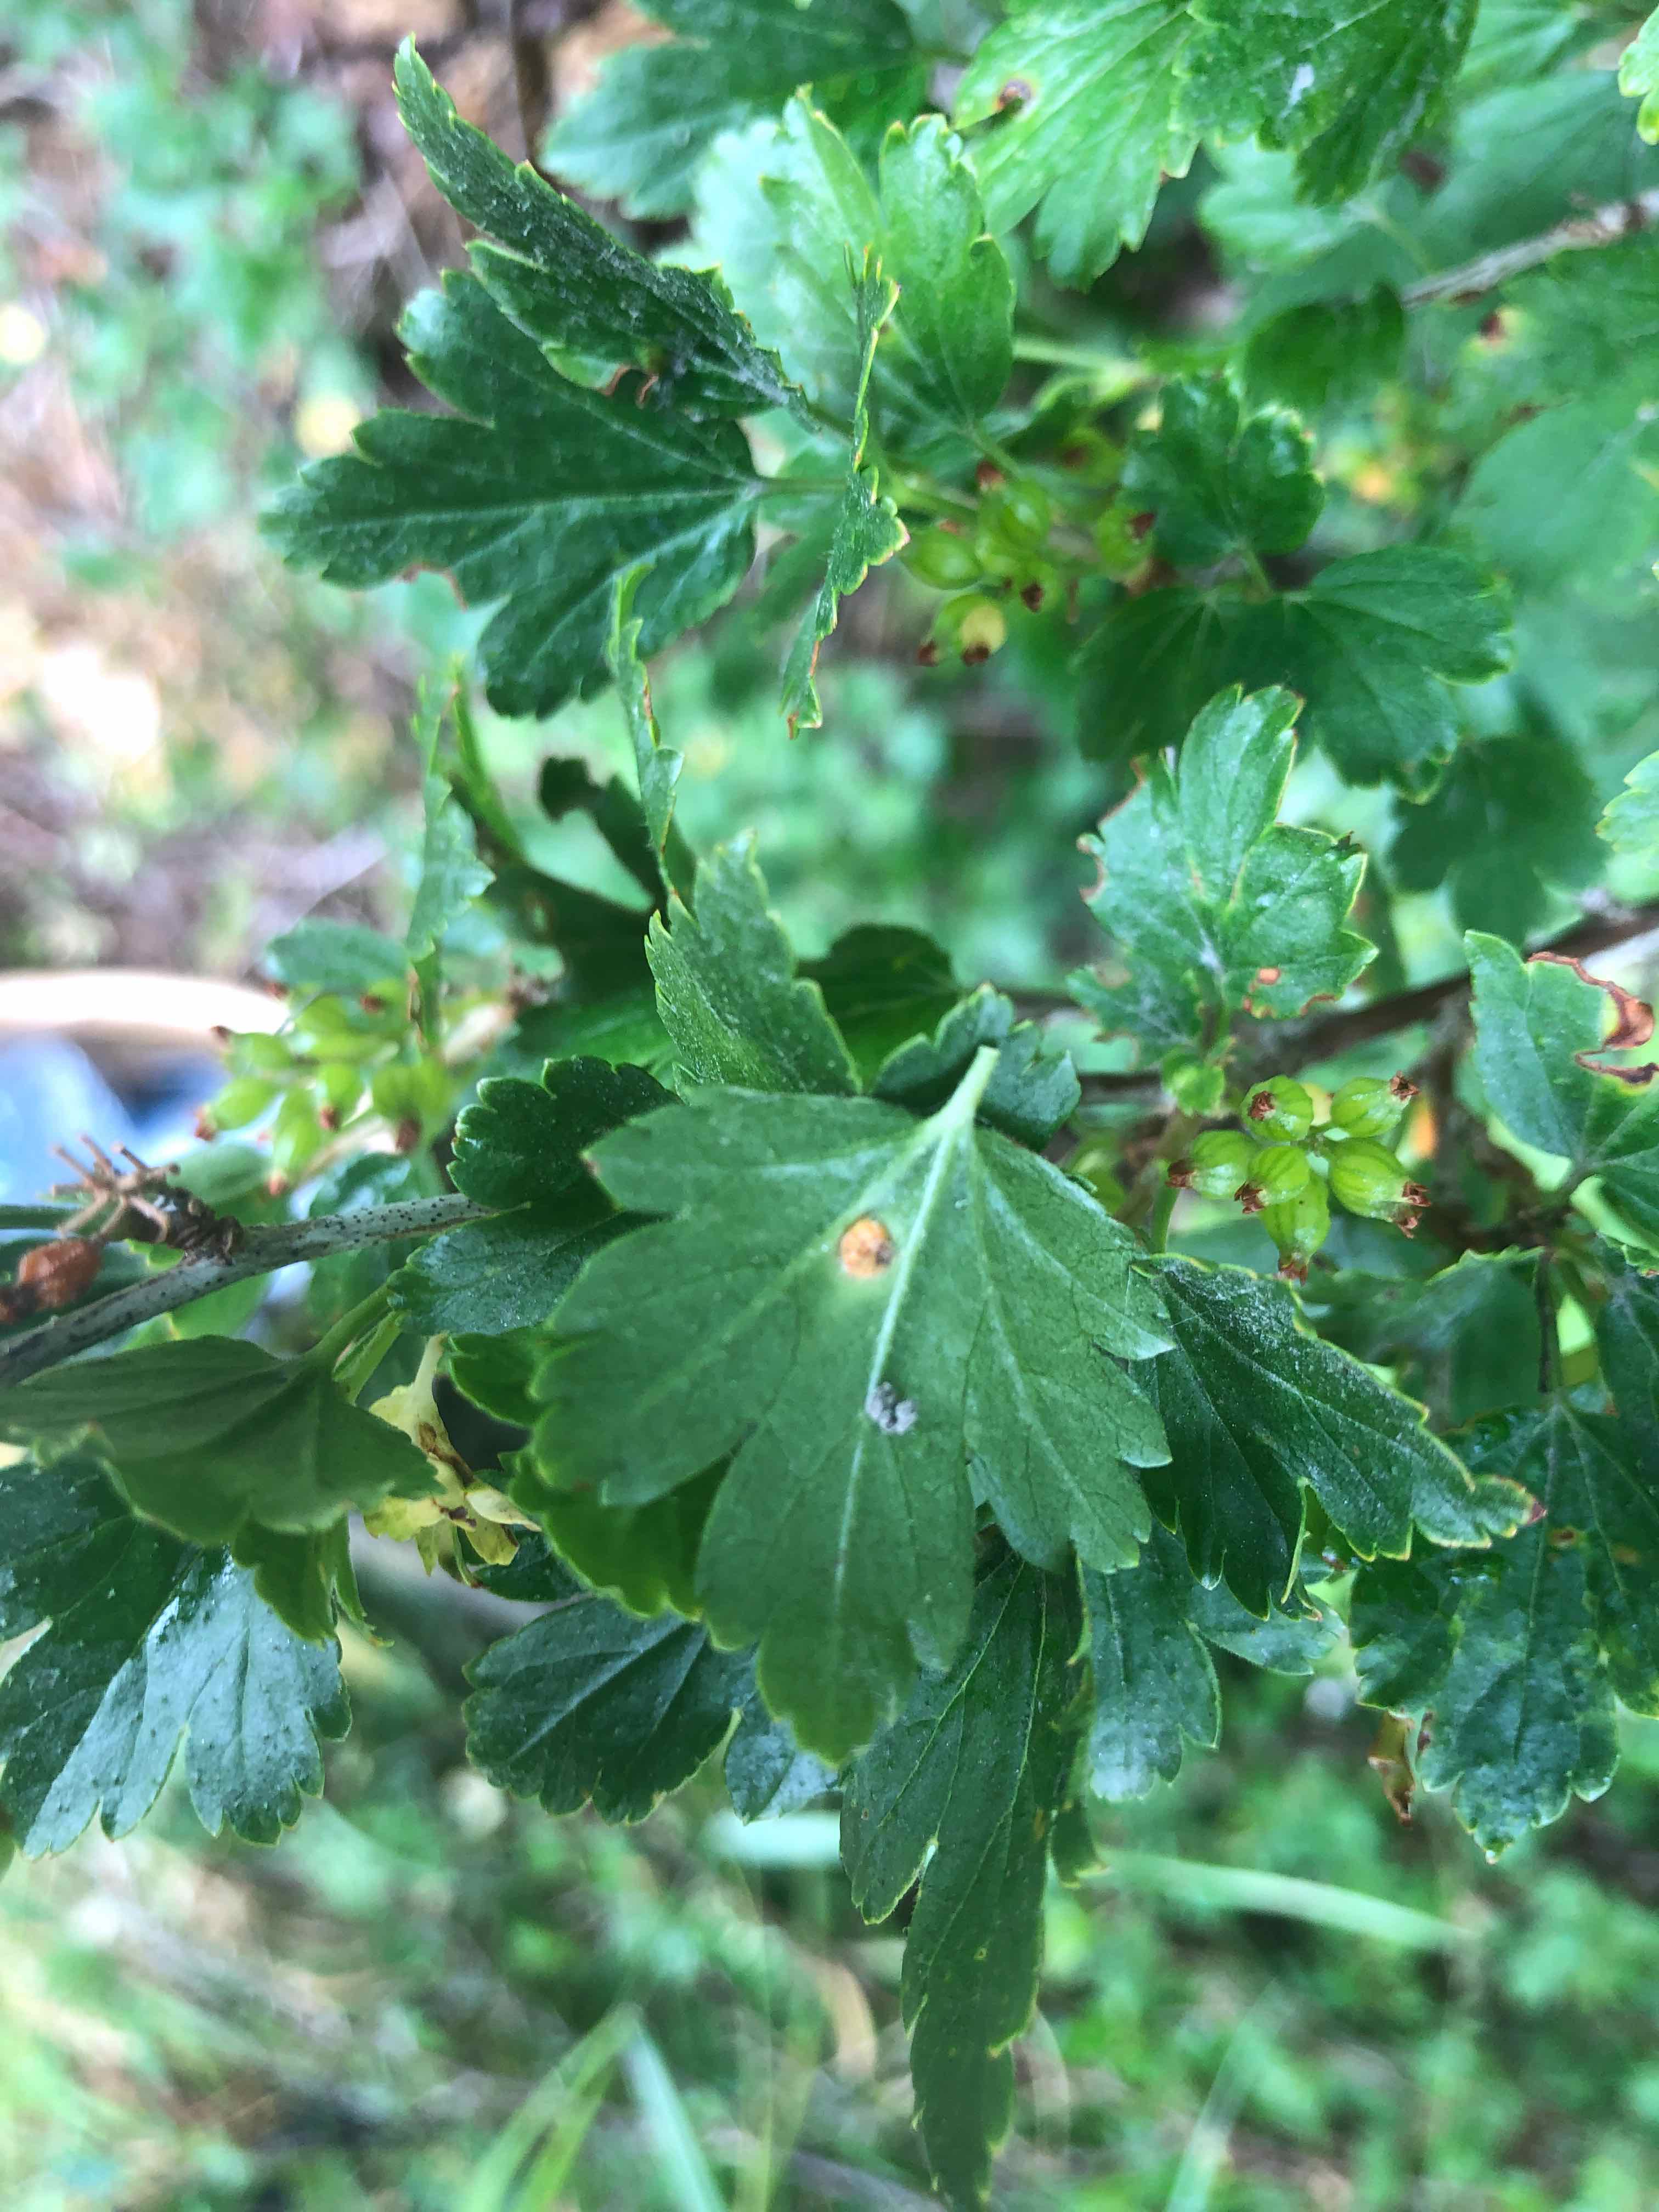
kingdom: Fungi
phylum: Basidiomycota
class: Pucciniomycetes
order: Pucciniales
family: Pucciniaceae
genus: Puccinia
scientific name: Puccinia caricina
